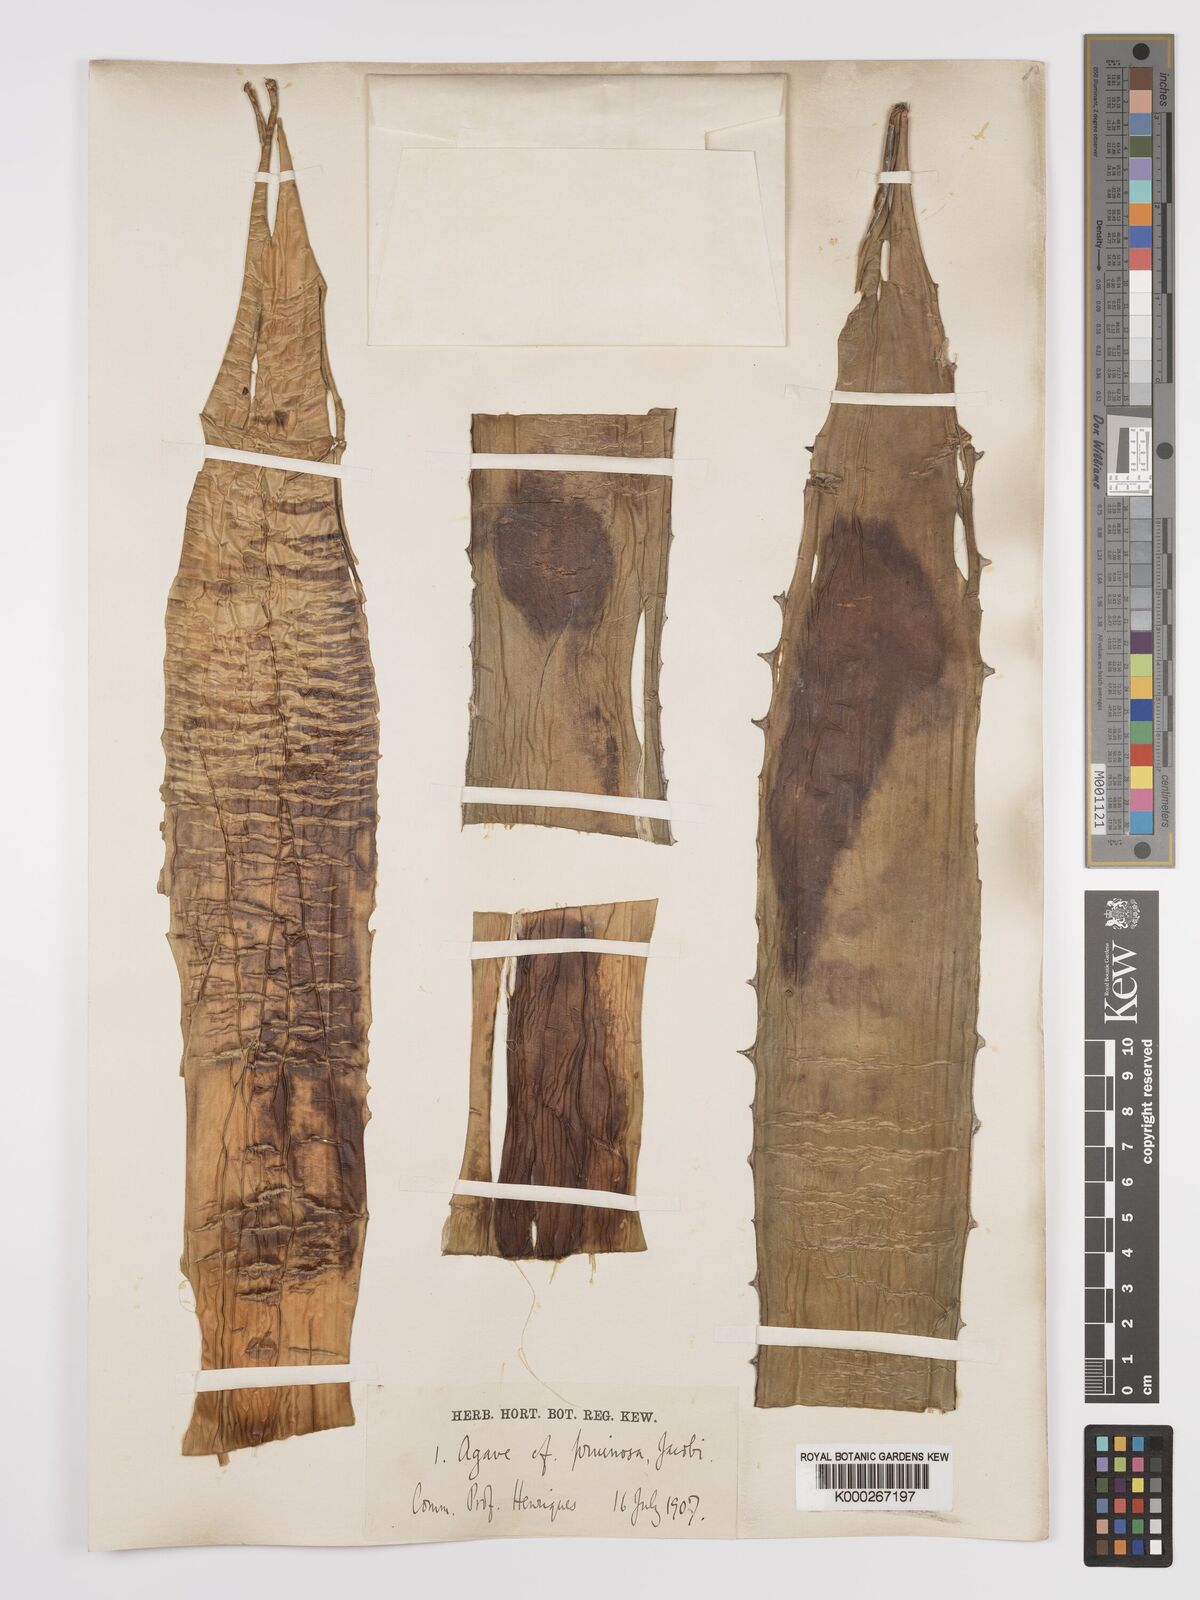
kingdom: Plantae
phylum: Tracheophyta
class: Liliopsida
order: Asparagales
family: Asparagaceae
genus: Agave
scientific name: Agave attenuata
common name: Fox tail agave
